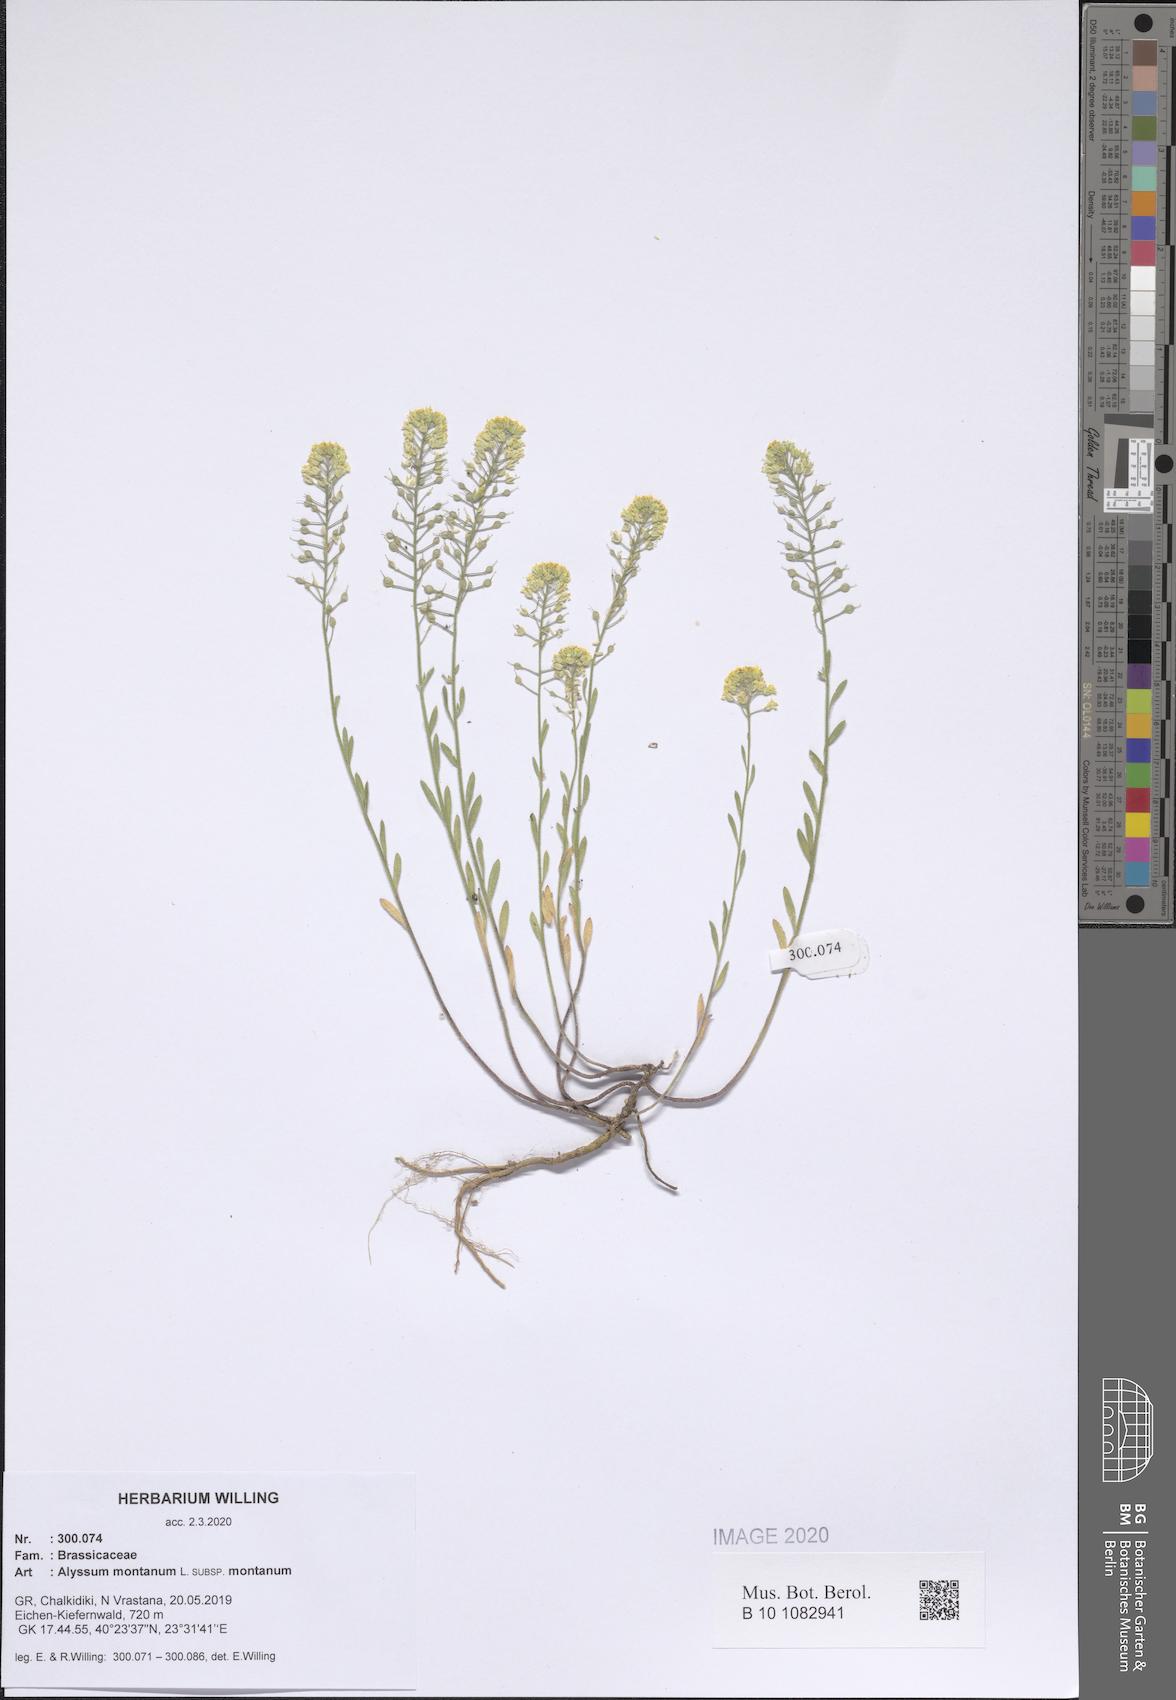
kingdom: Plantae
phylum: Tracheophyta
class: Magnoliopsida
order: Brassicales
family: Brassicaceae
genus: Alyssum
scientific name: Alyssum montanum
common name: Mountain alison
